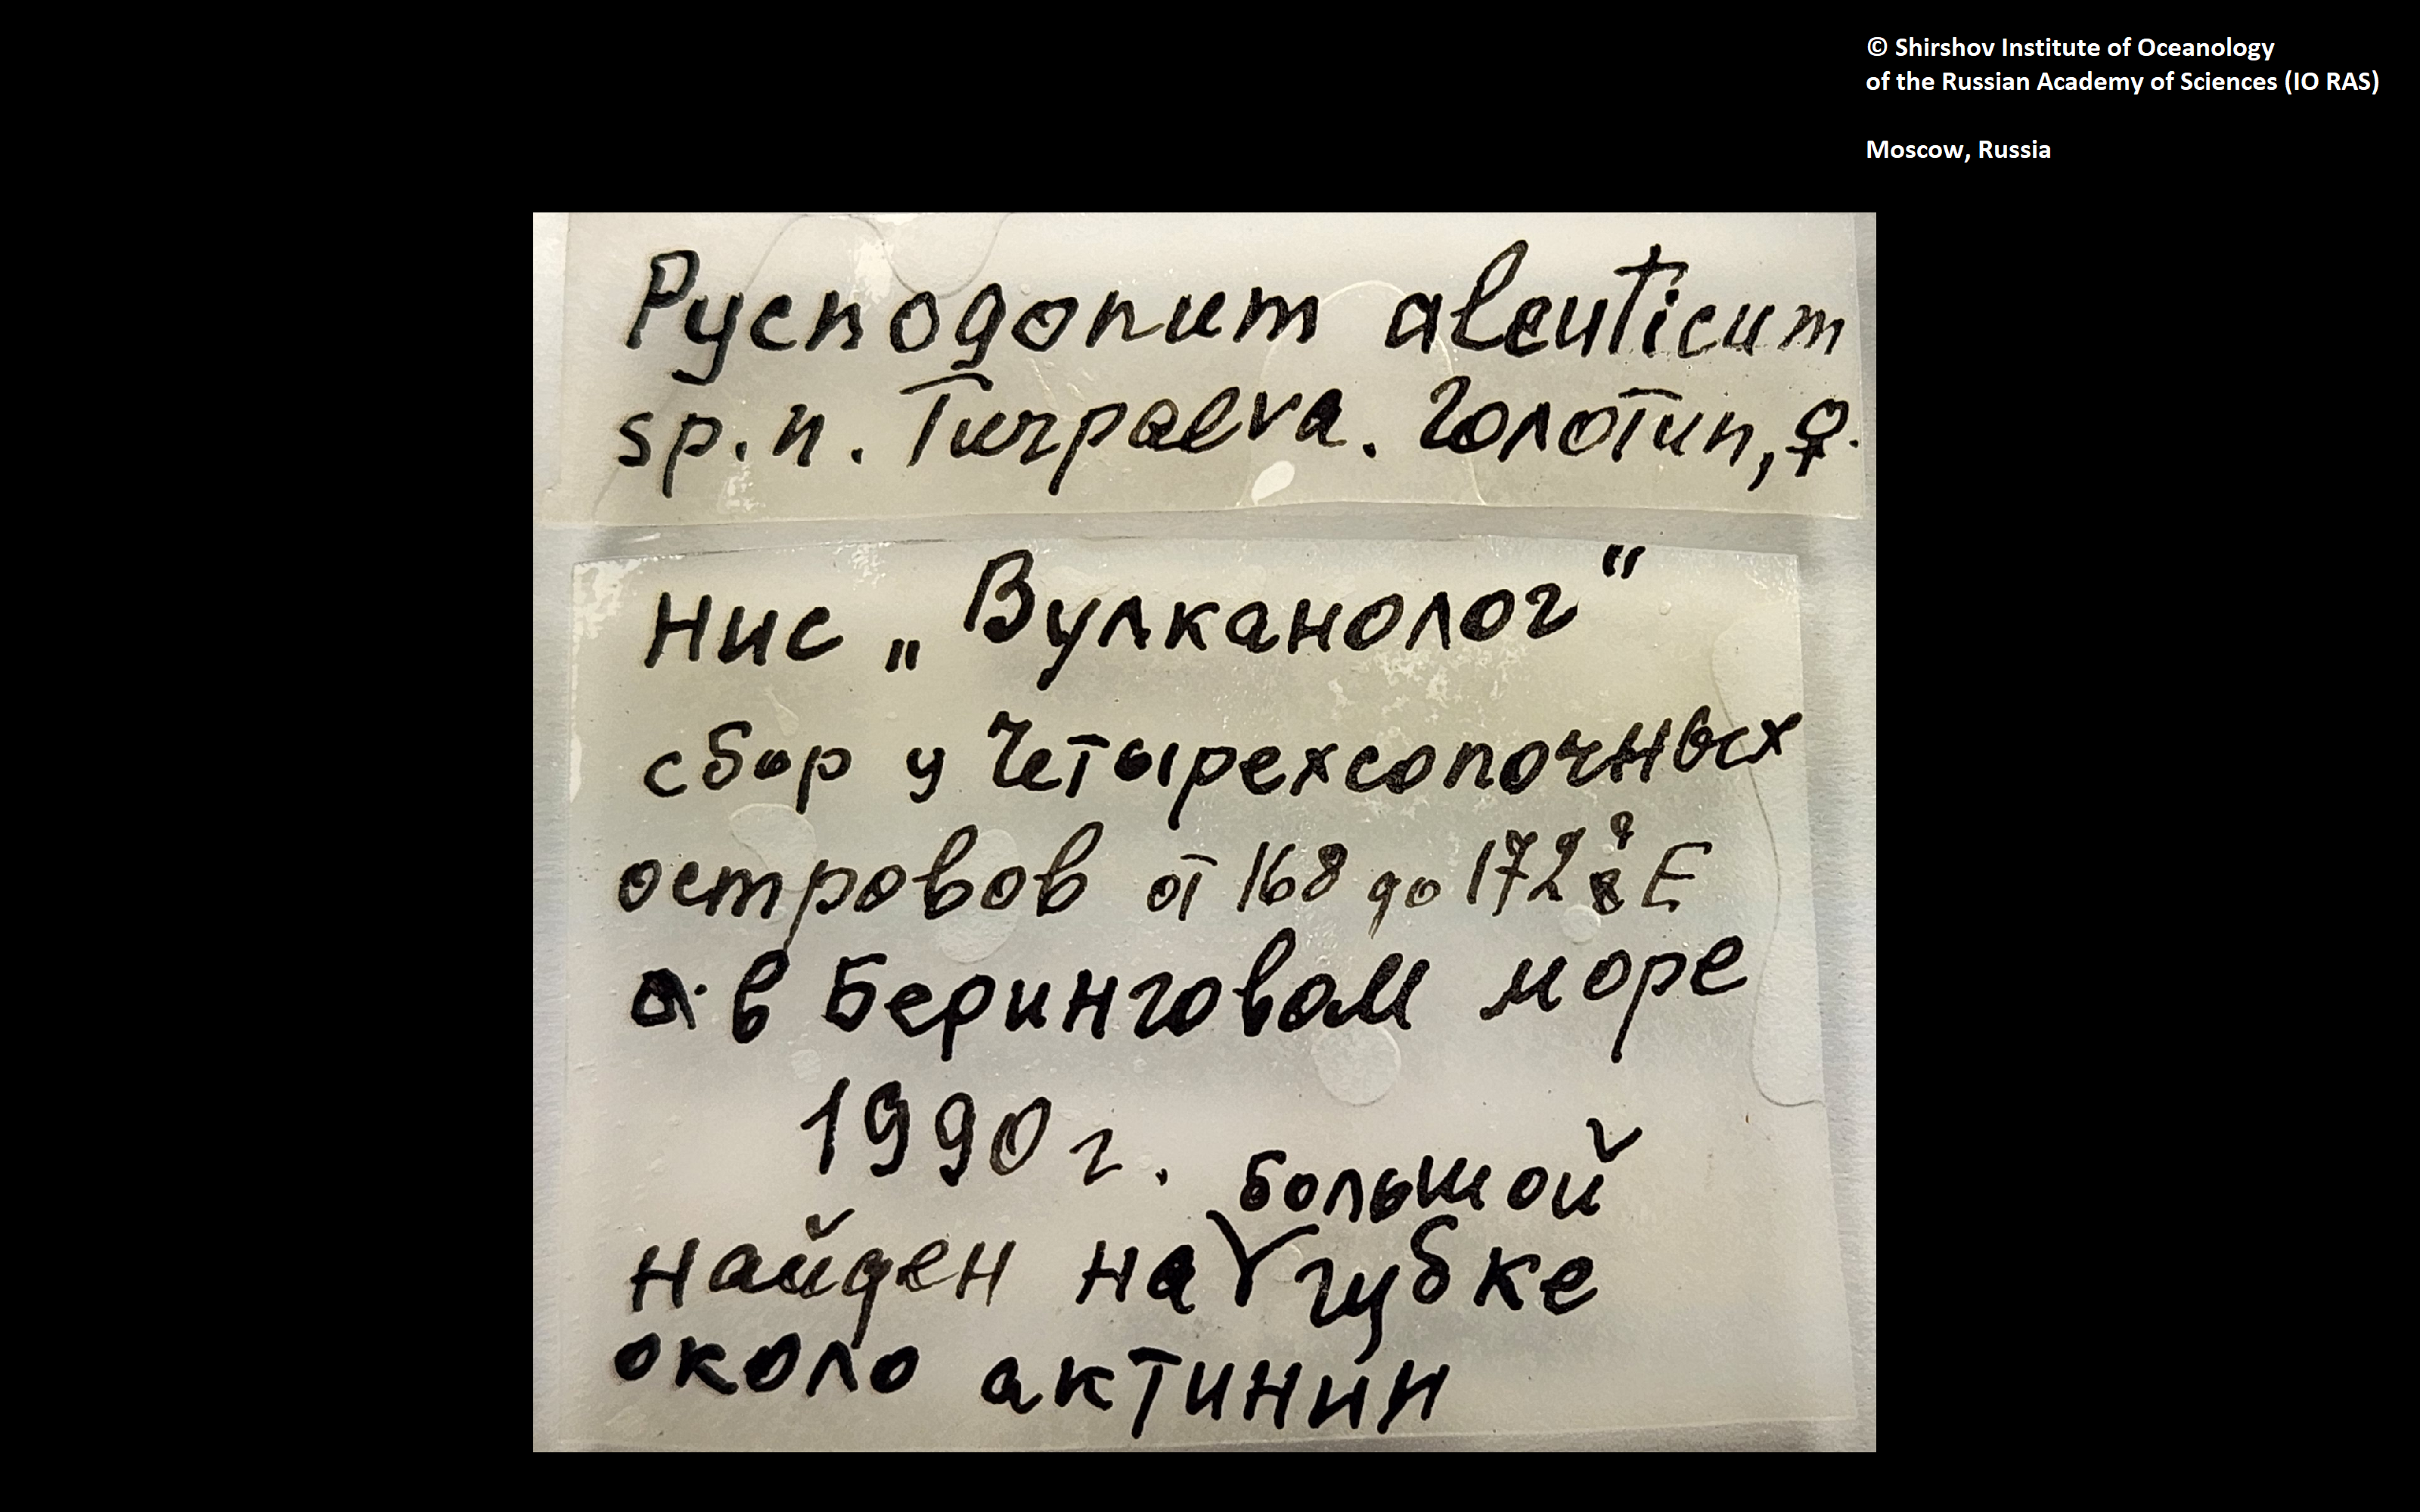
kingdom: Animalia
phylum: Arthropoda
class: Pycnogonida
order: Pantopoda
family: Pycnogonidae
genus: Pycnogonum
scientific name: Pycnogonum aleuticum
